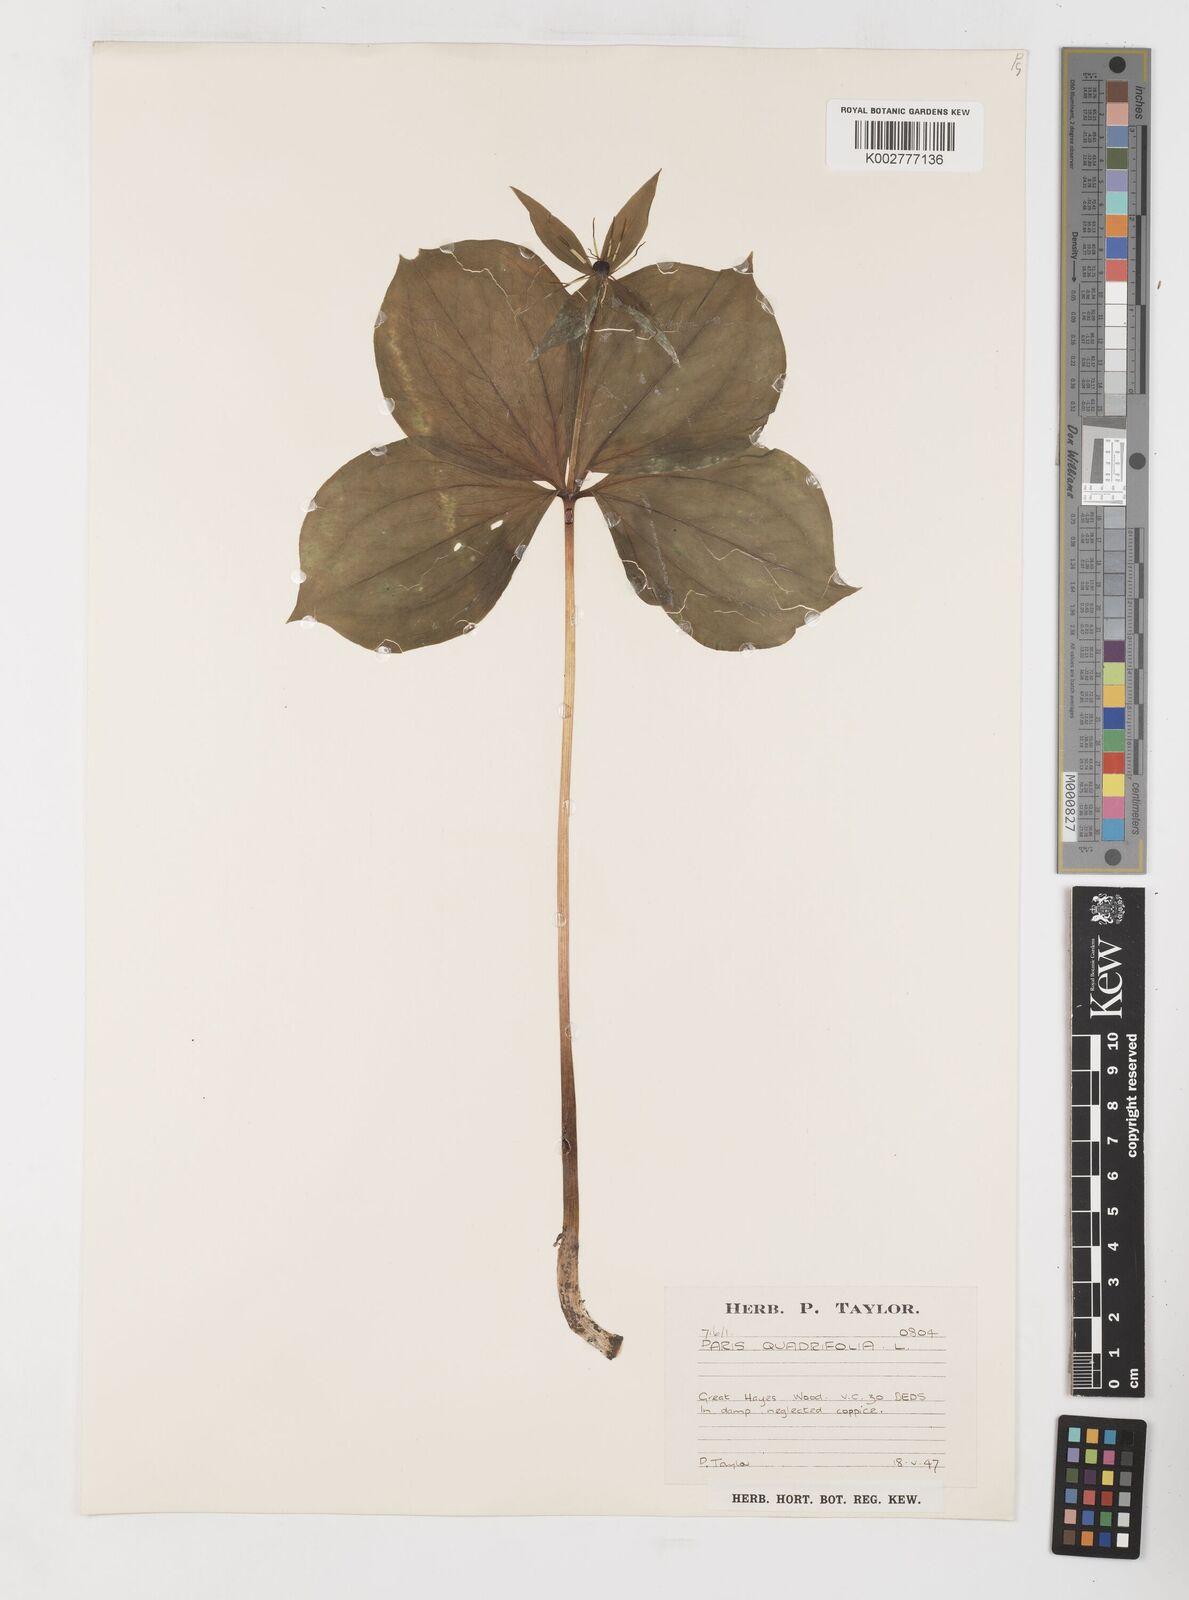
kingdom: Plantae
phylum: Tracheophyta
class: Liliopsida
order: Liliales
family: Melanthiaceae
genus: Paris
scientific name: Paris quadrifolia
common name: Herb-paris
